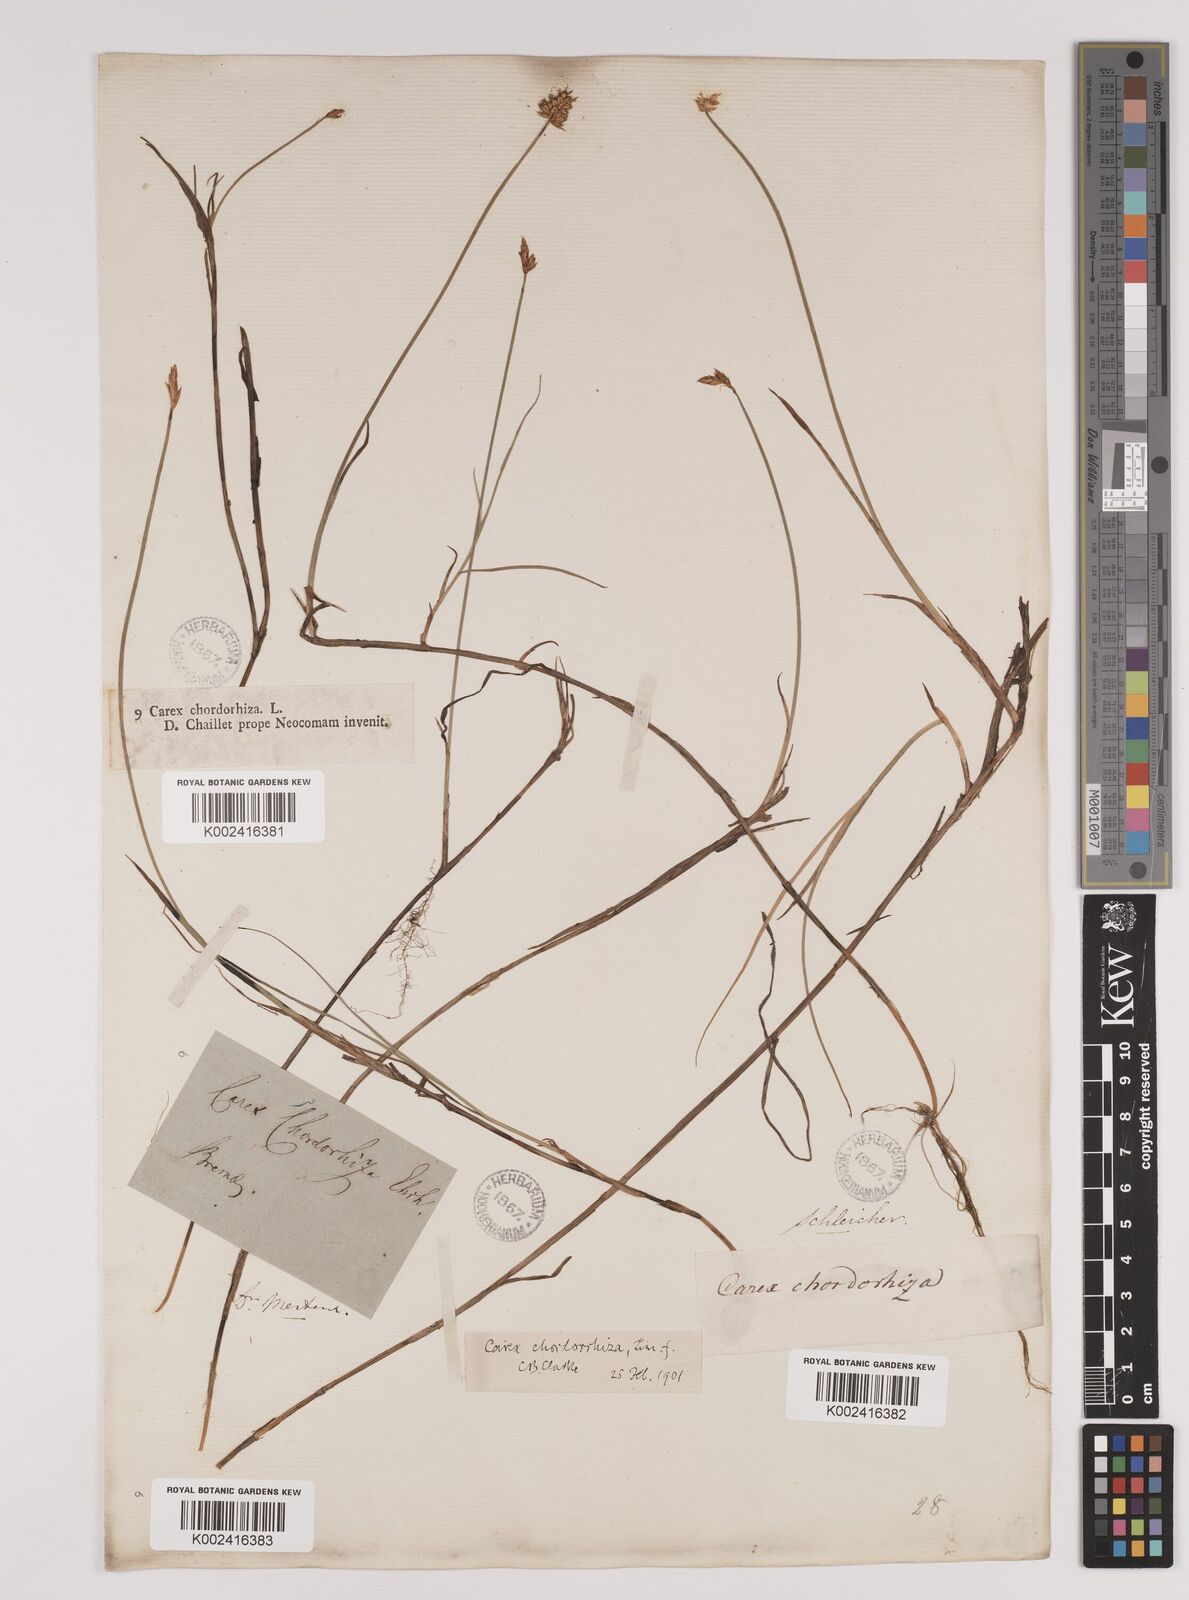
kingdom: Plantae
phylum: Tracheophyta
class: Liliopsida
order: Poales
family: Cyperaceae
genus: Carex
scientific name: Carex chordorrhiza
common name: String sedge
